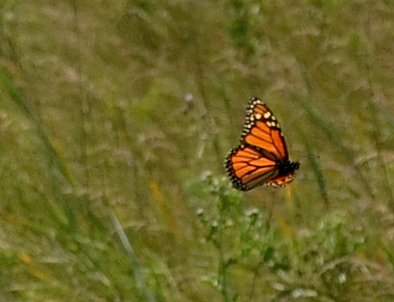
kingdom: Animalia
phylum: Arthropoda
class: Insecta
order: Lepidoptera
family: Nymphalidae
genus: Danaus
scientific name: Danaus plexippus
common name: Monarch
